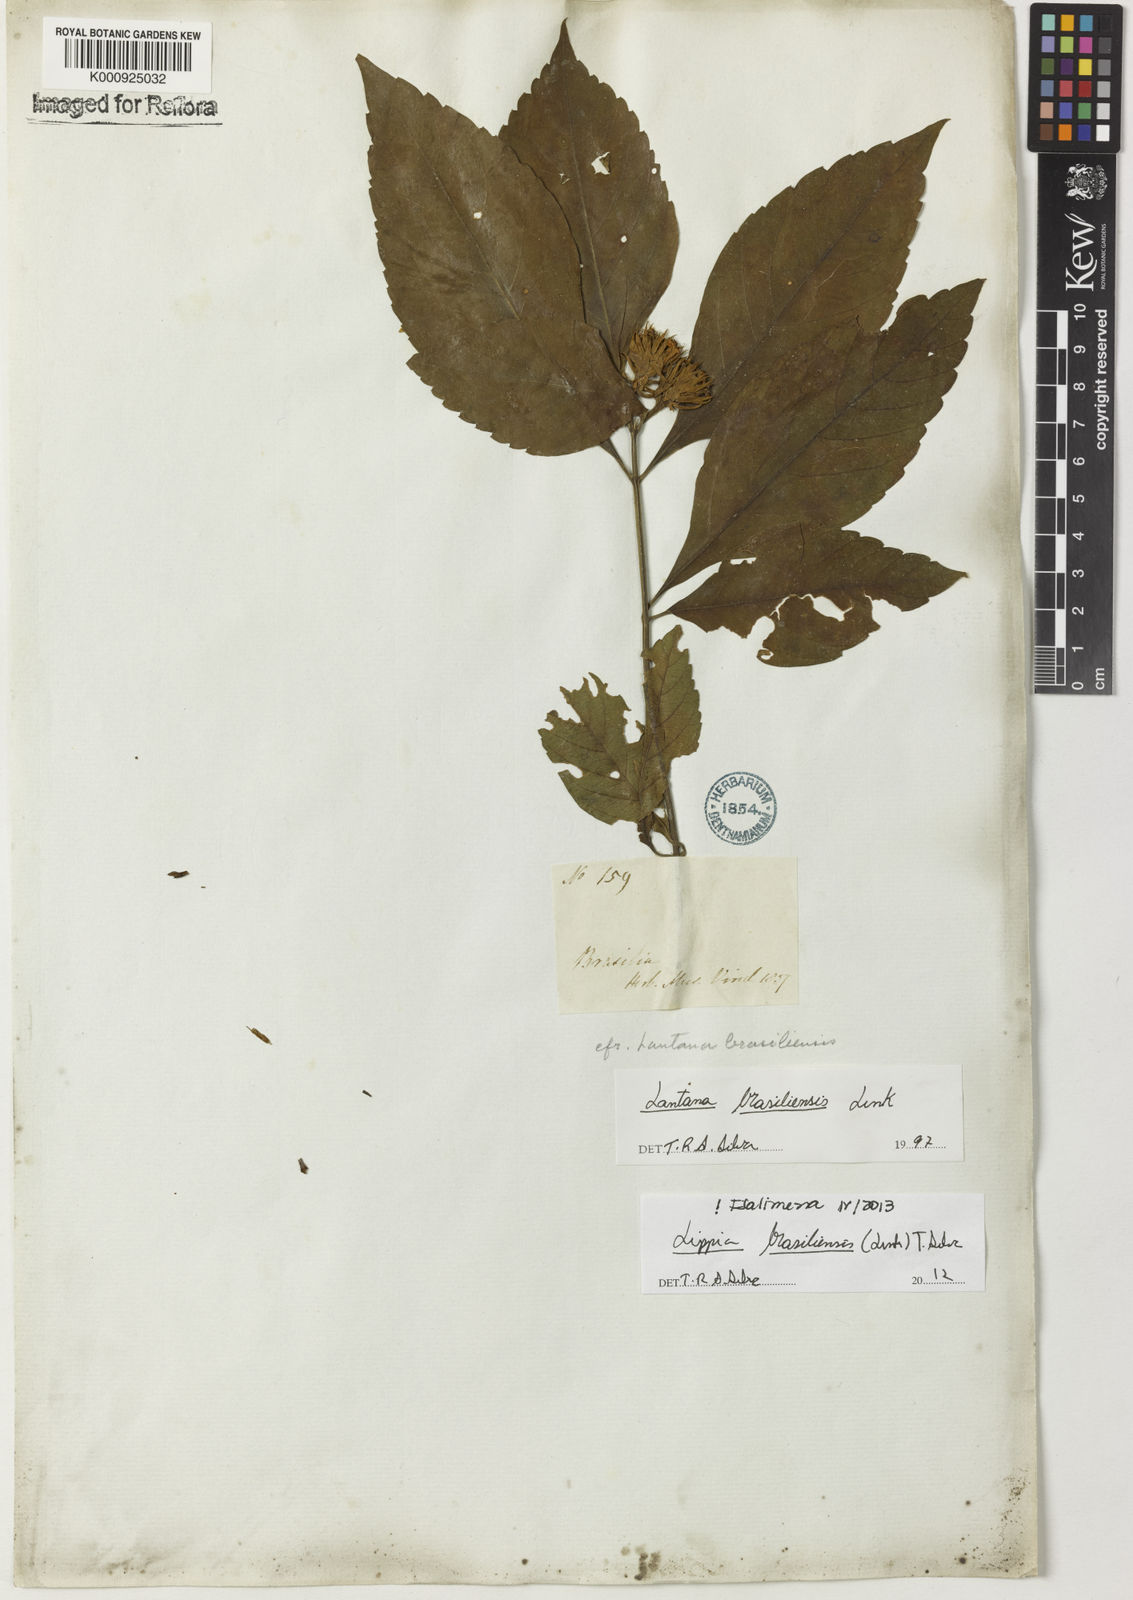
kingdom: Plantae
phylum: Tracheophyta
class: Magnoliopsida
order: Lamiales
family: Verbenaceae
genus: Lippia
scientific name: Lippia brasiliensis
